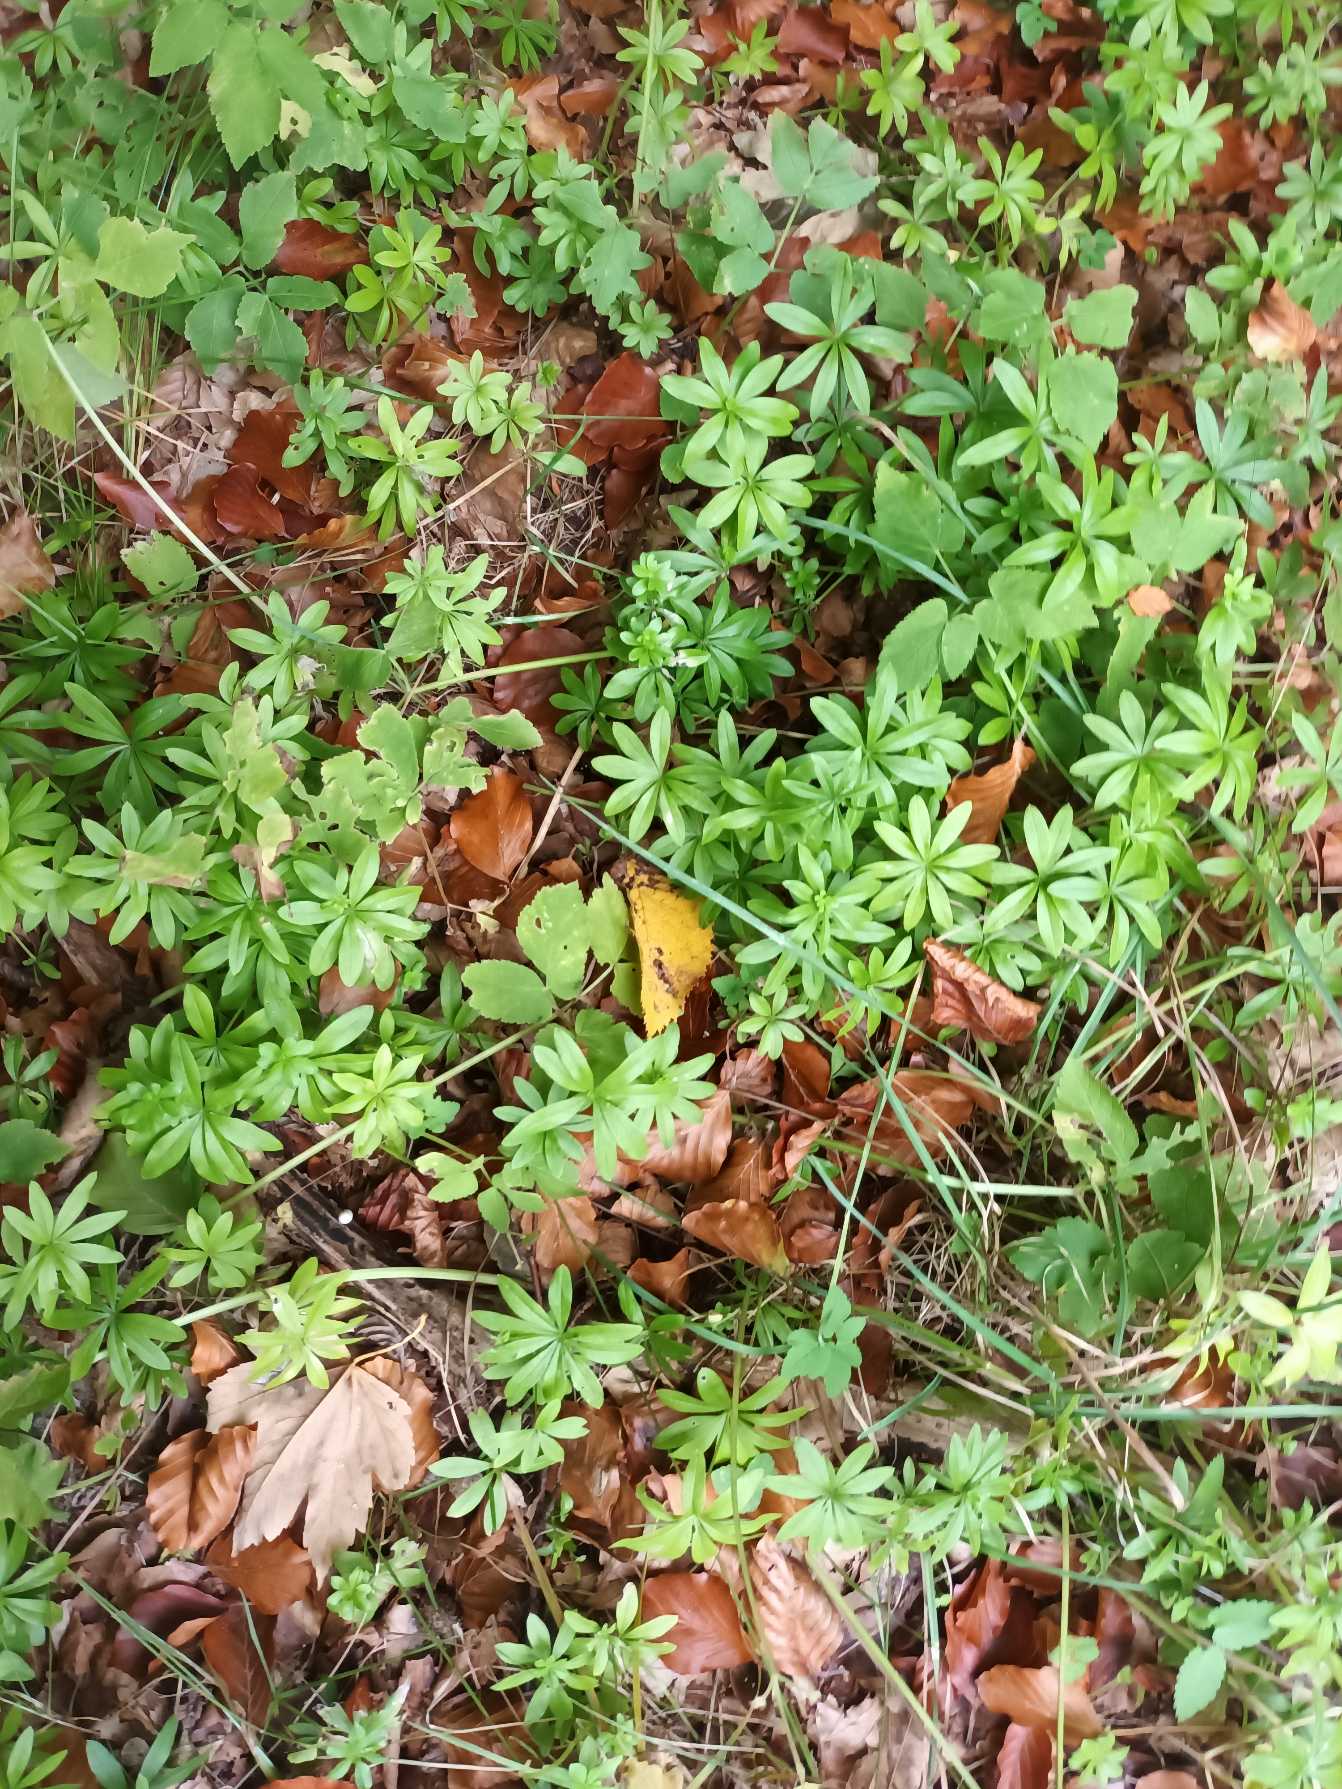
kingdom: Plantae
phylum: Tracheophyta
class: Magnoliopsida
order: Gentianales
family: Rubiaceae
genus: Galium
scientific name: Galium odoratum
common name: Skovmærke
